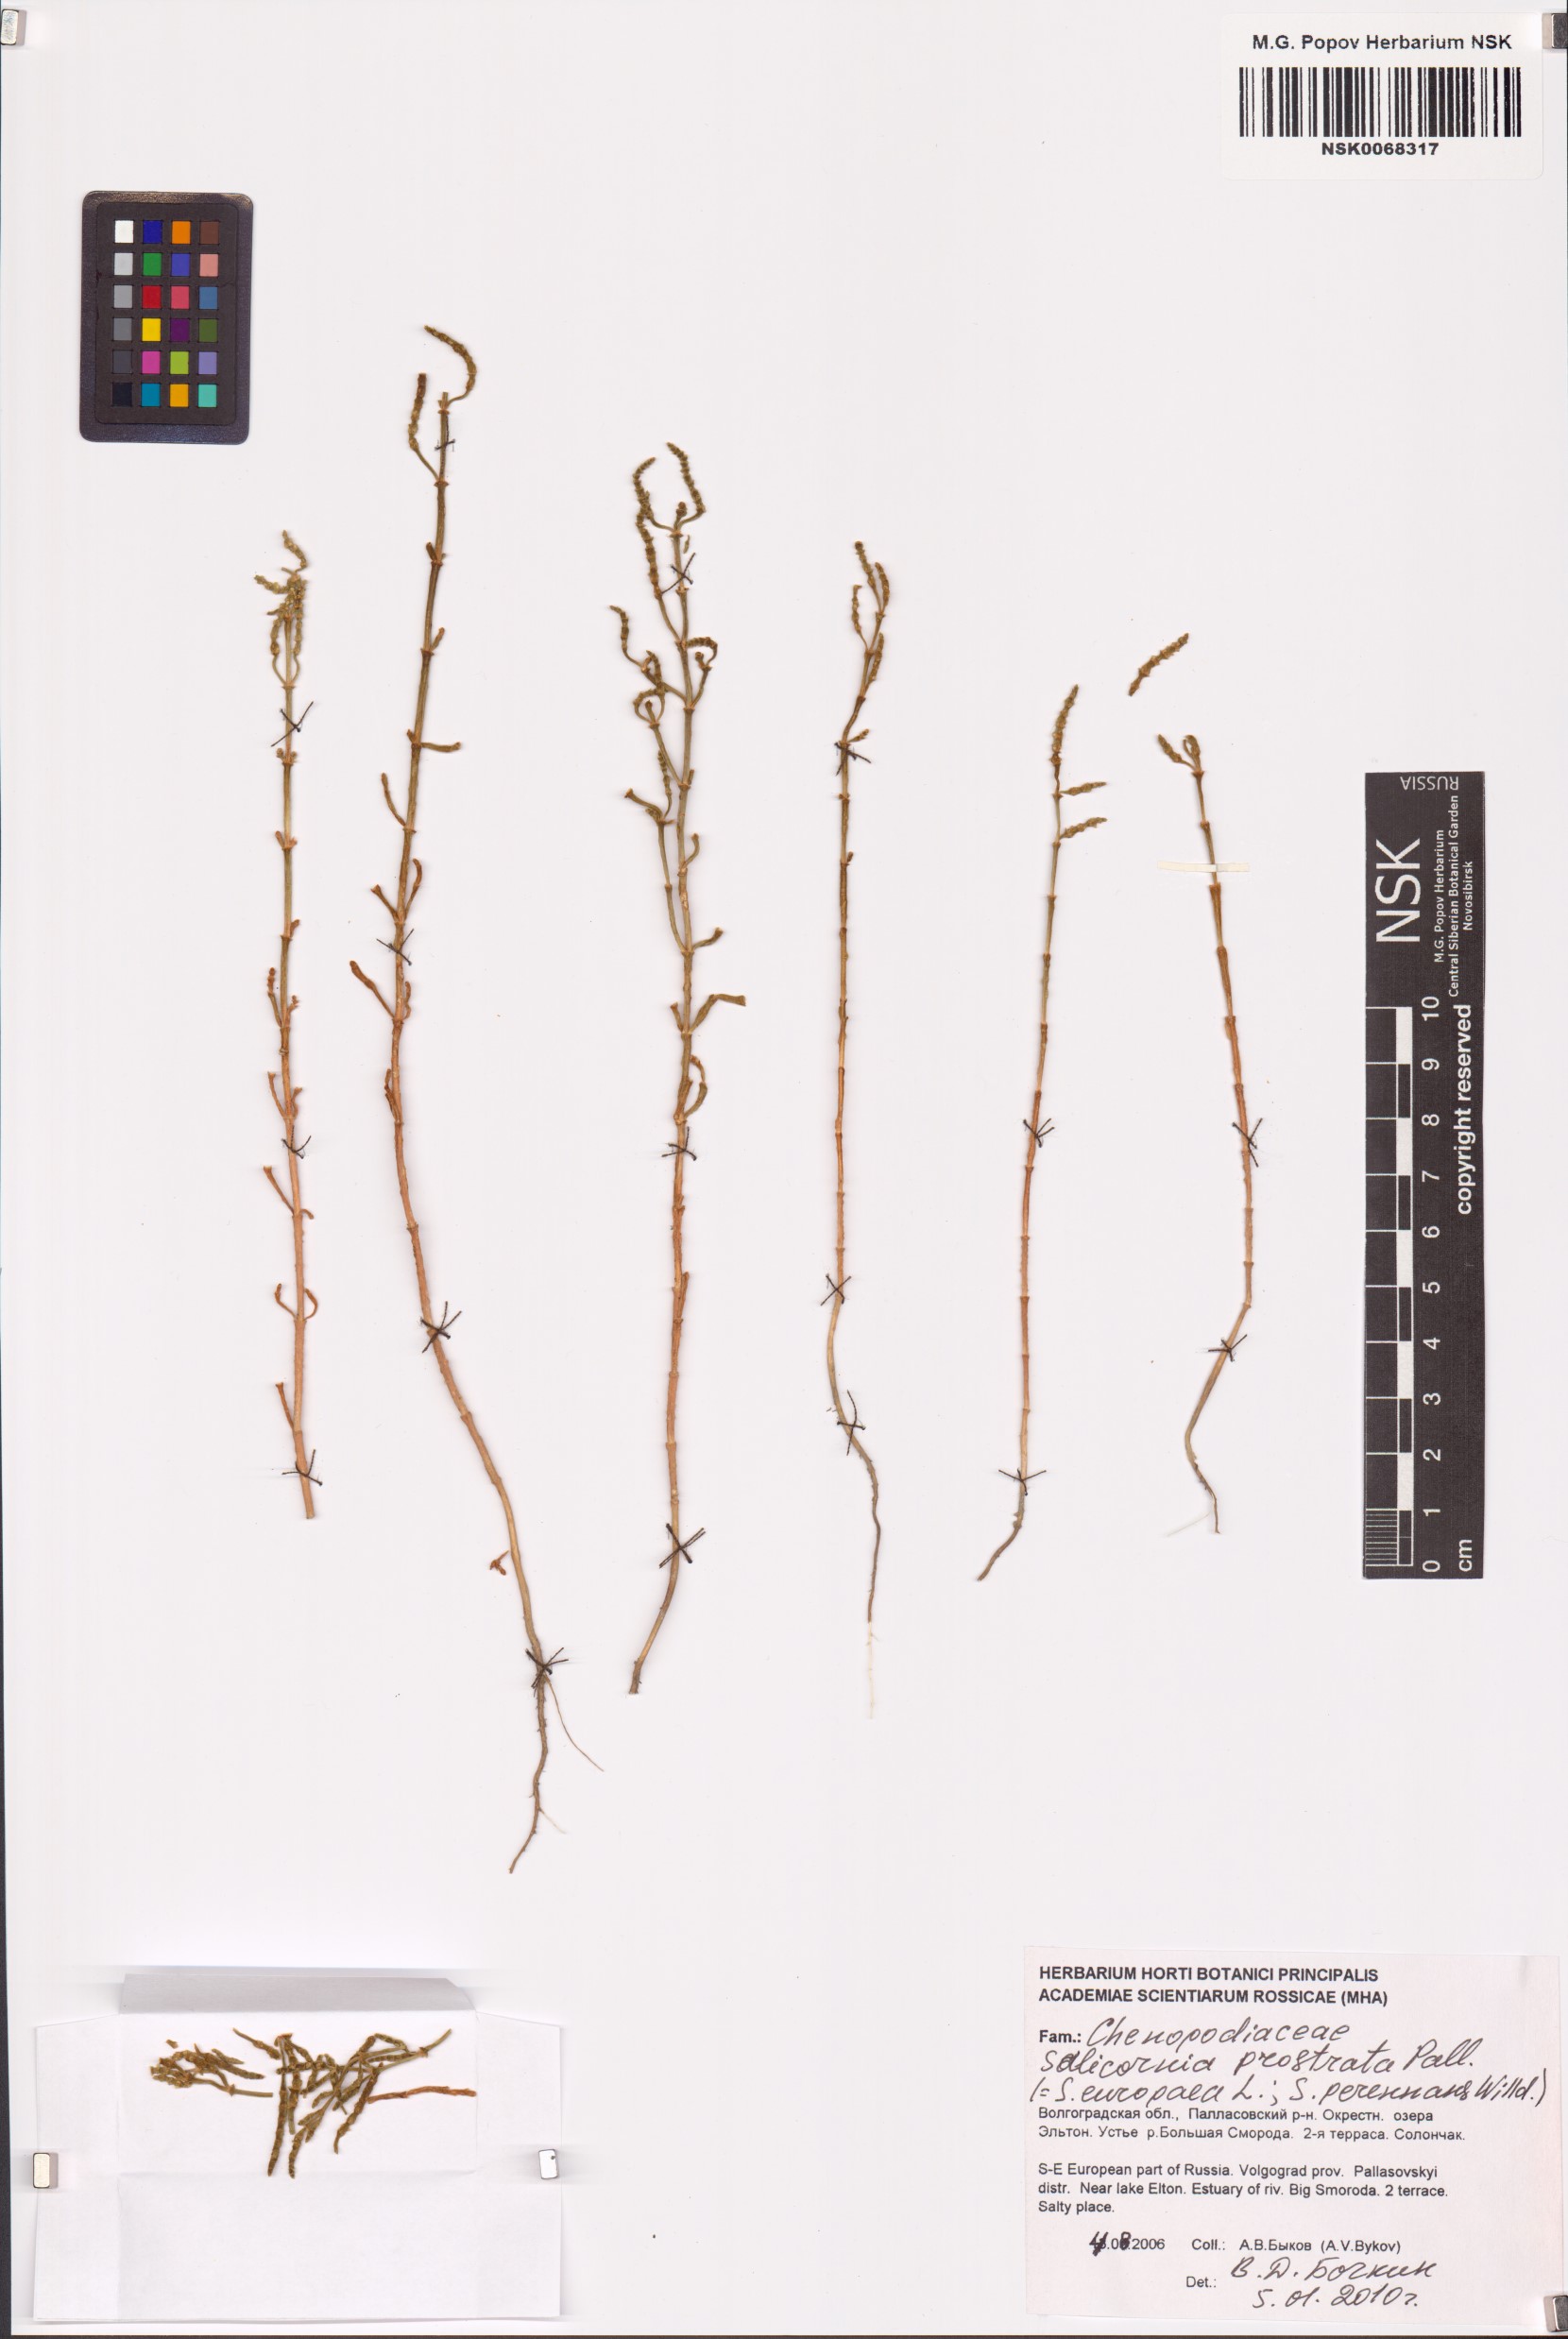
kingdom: Plantae
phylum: Tracheophyta
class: Magnoliopsida
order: Caryophyllales
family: Amaranthaceae
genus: Salicornia
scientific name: Salicornia perennans
